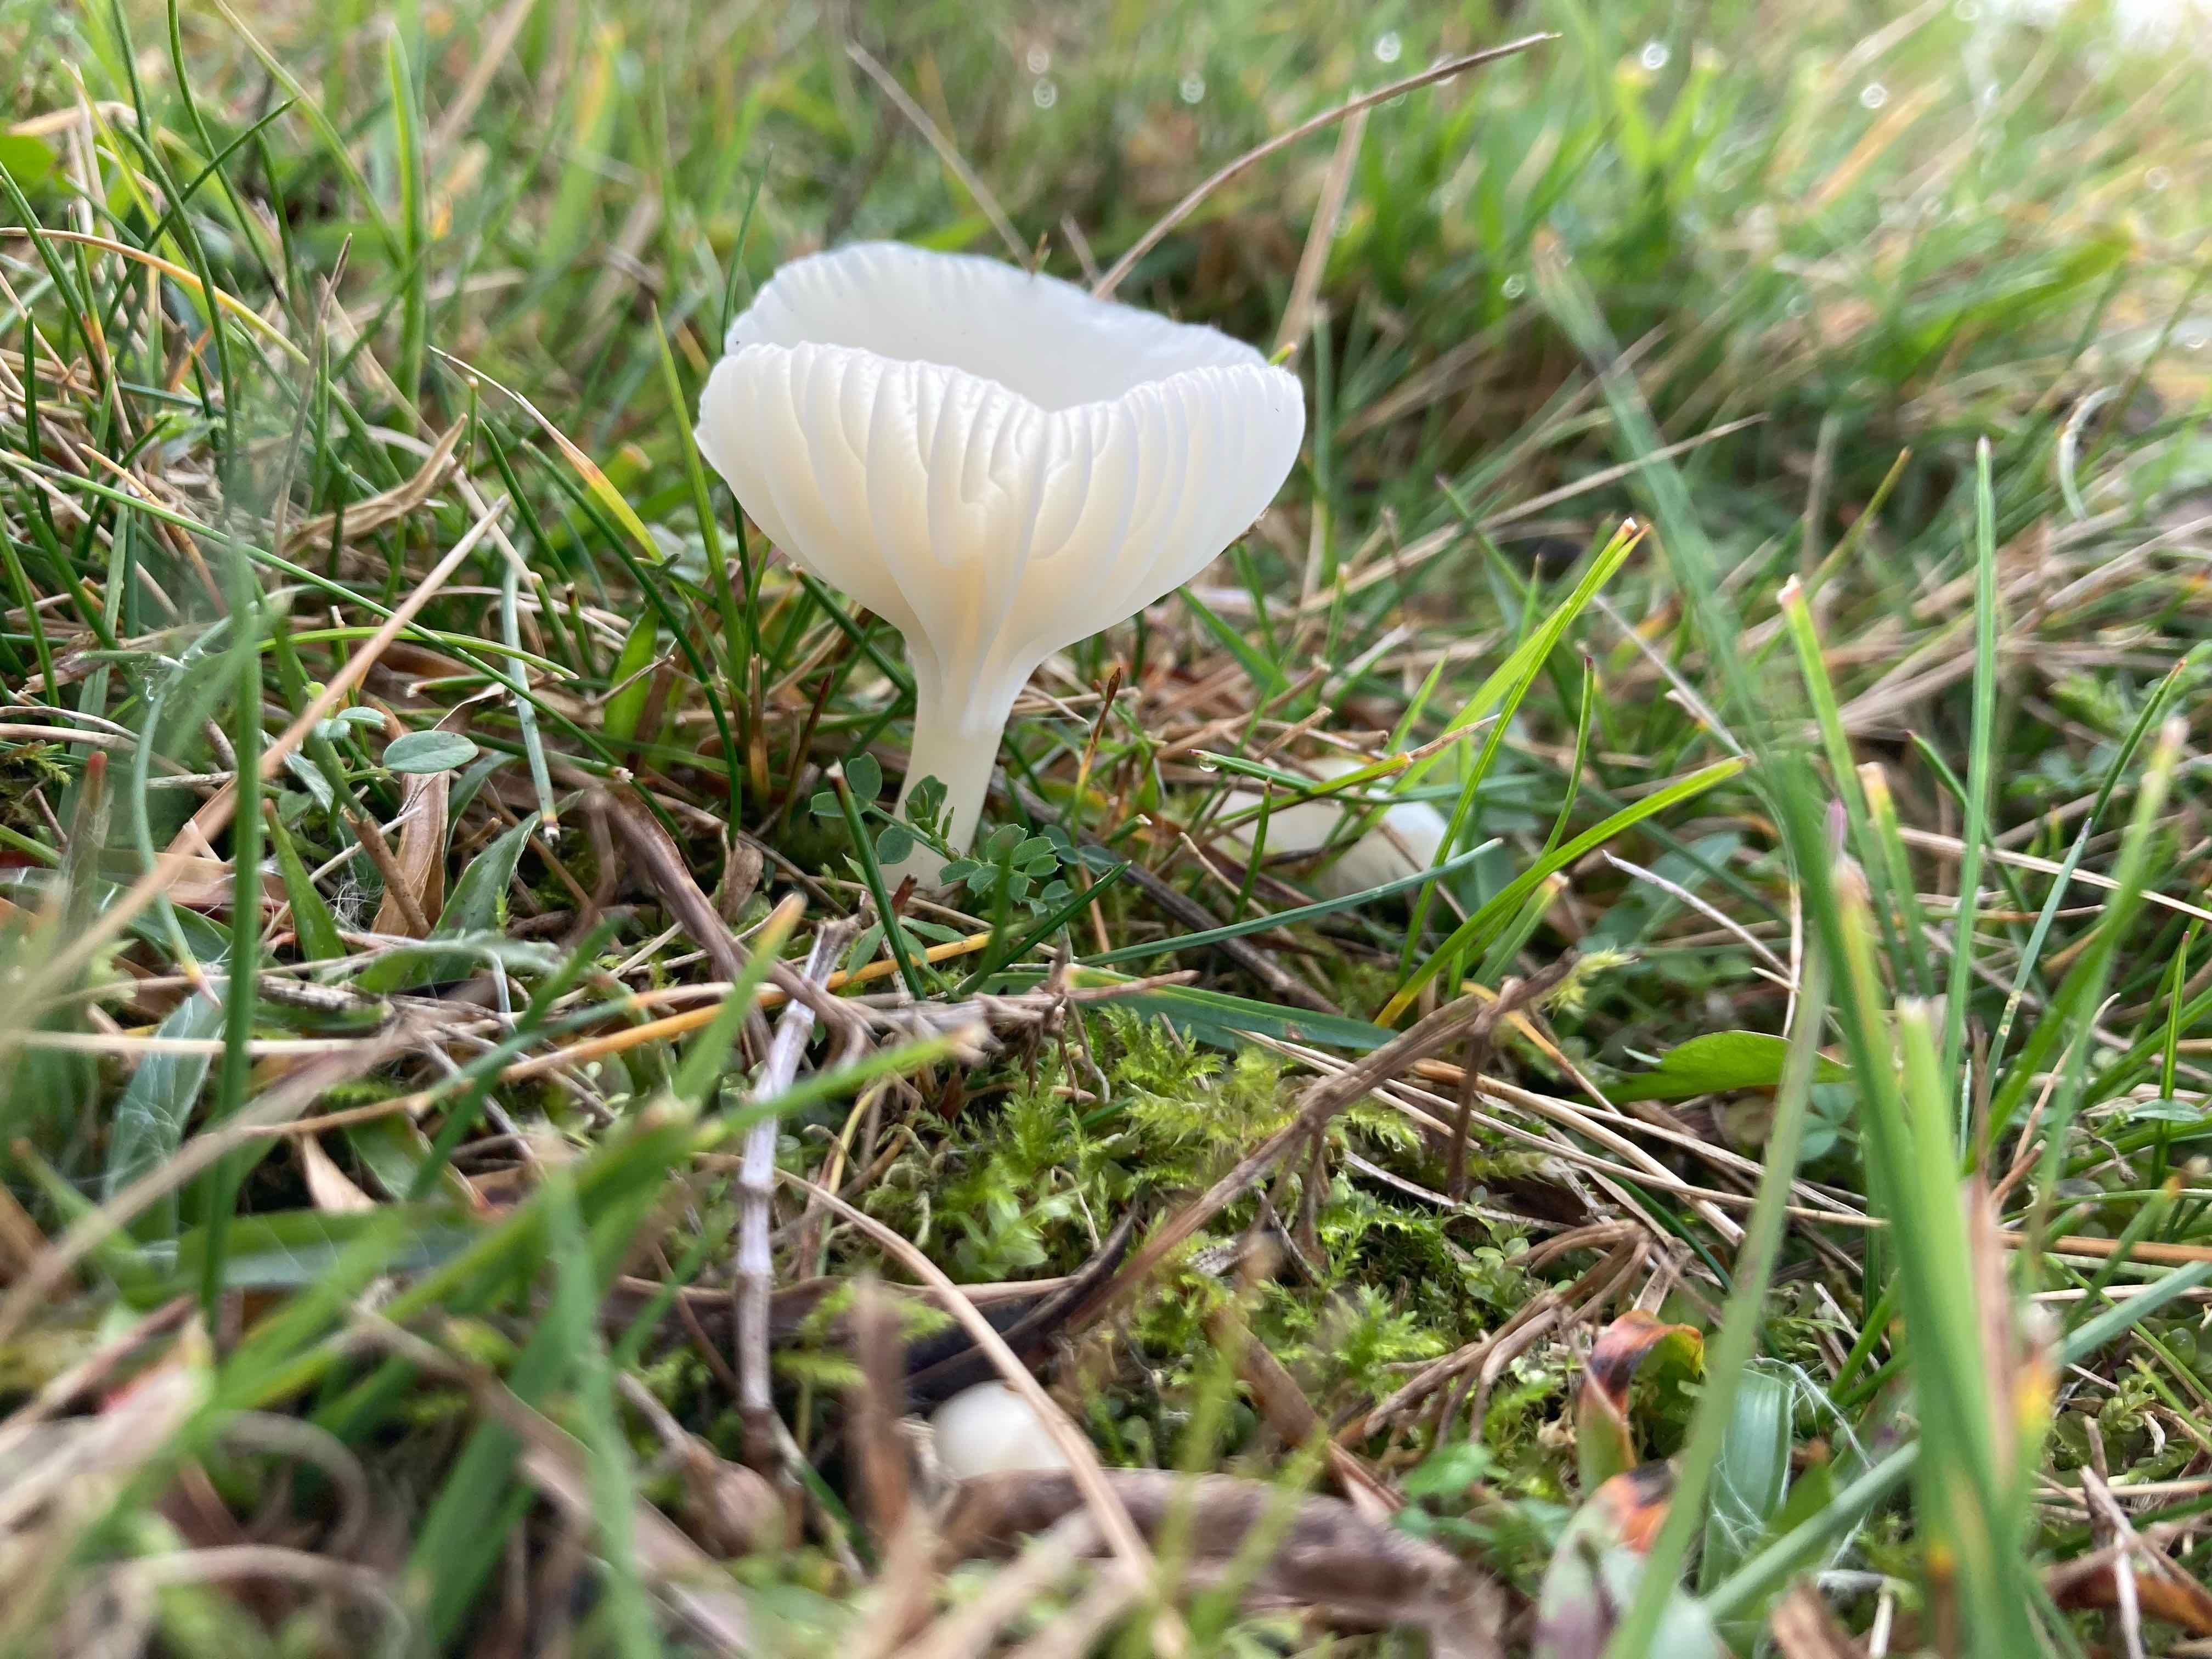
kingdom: Fungi
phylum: Basidiomycota
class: Agaricomycetes
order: Agaricales
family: Hygrophoraceae
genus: Cuphophyllus
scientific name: Cuphophyllus
